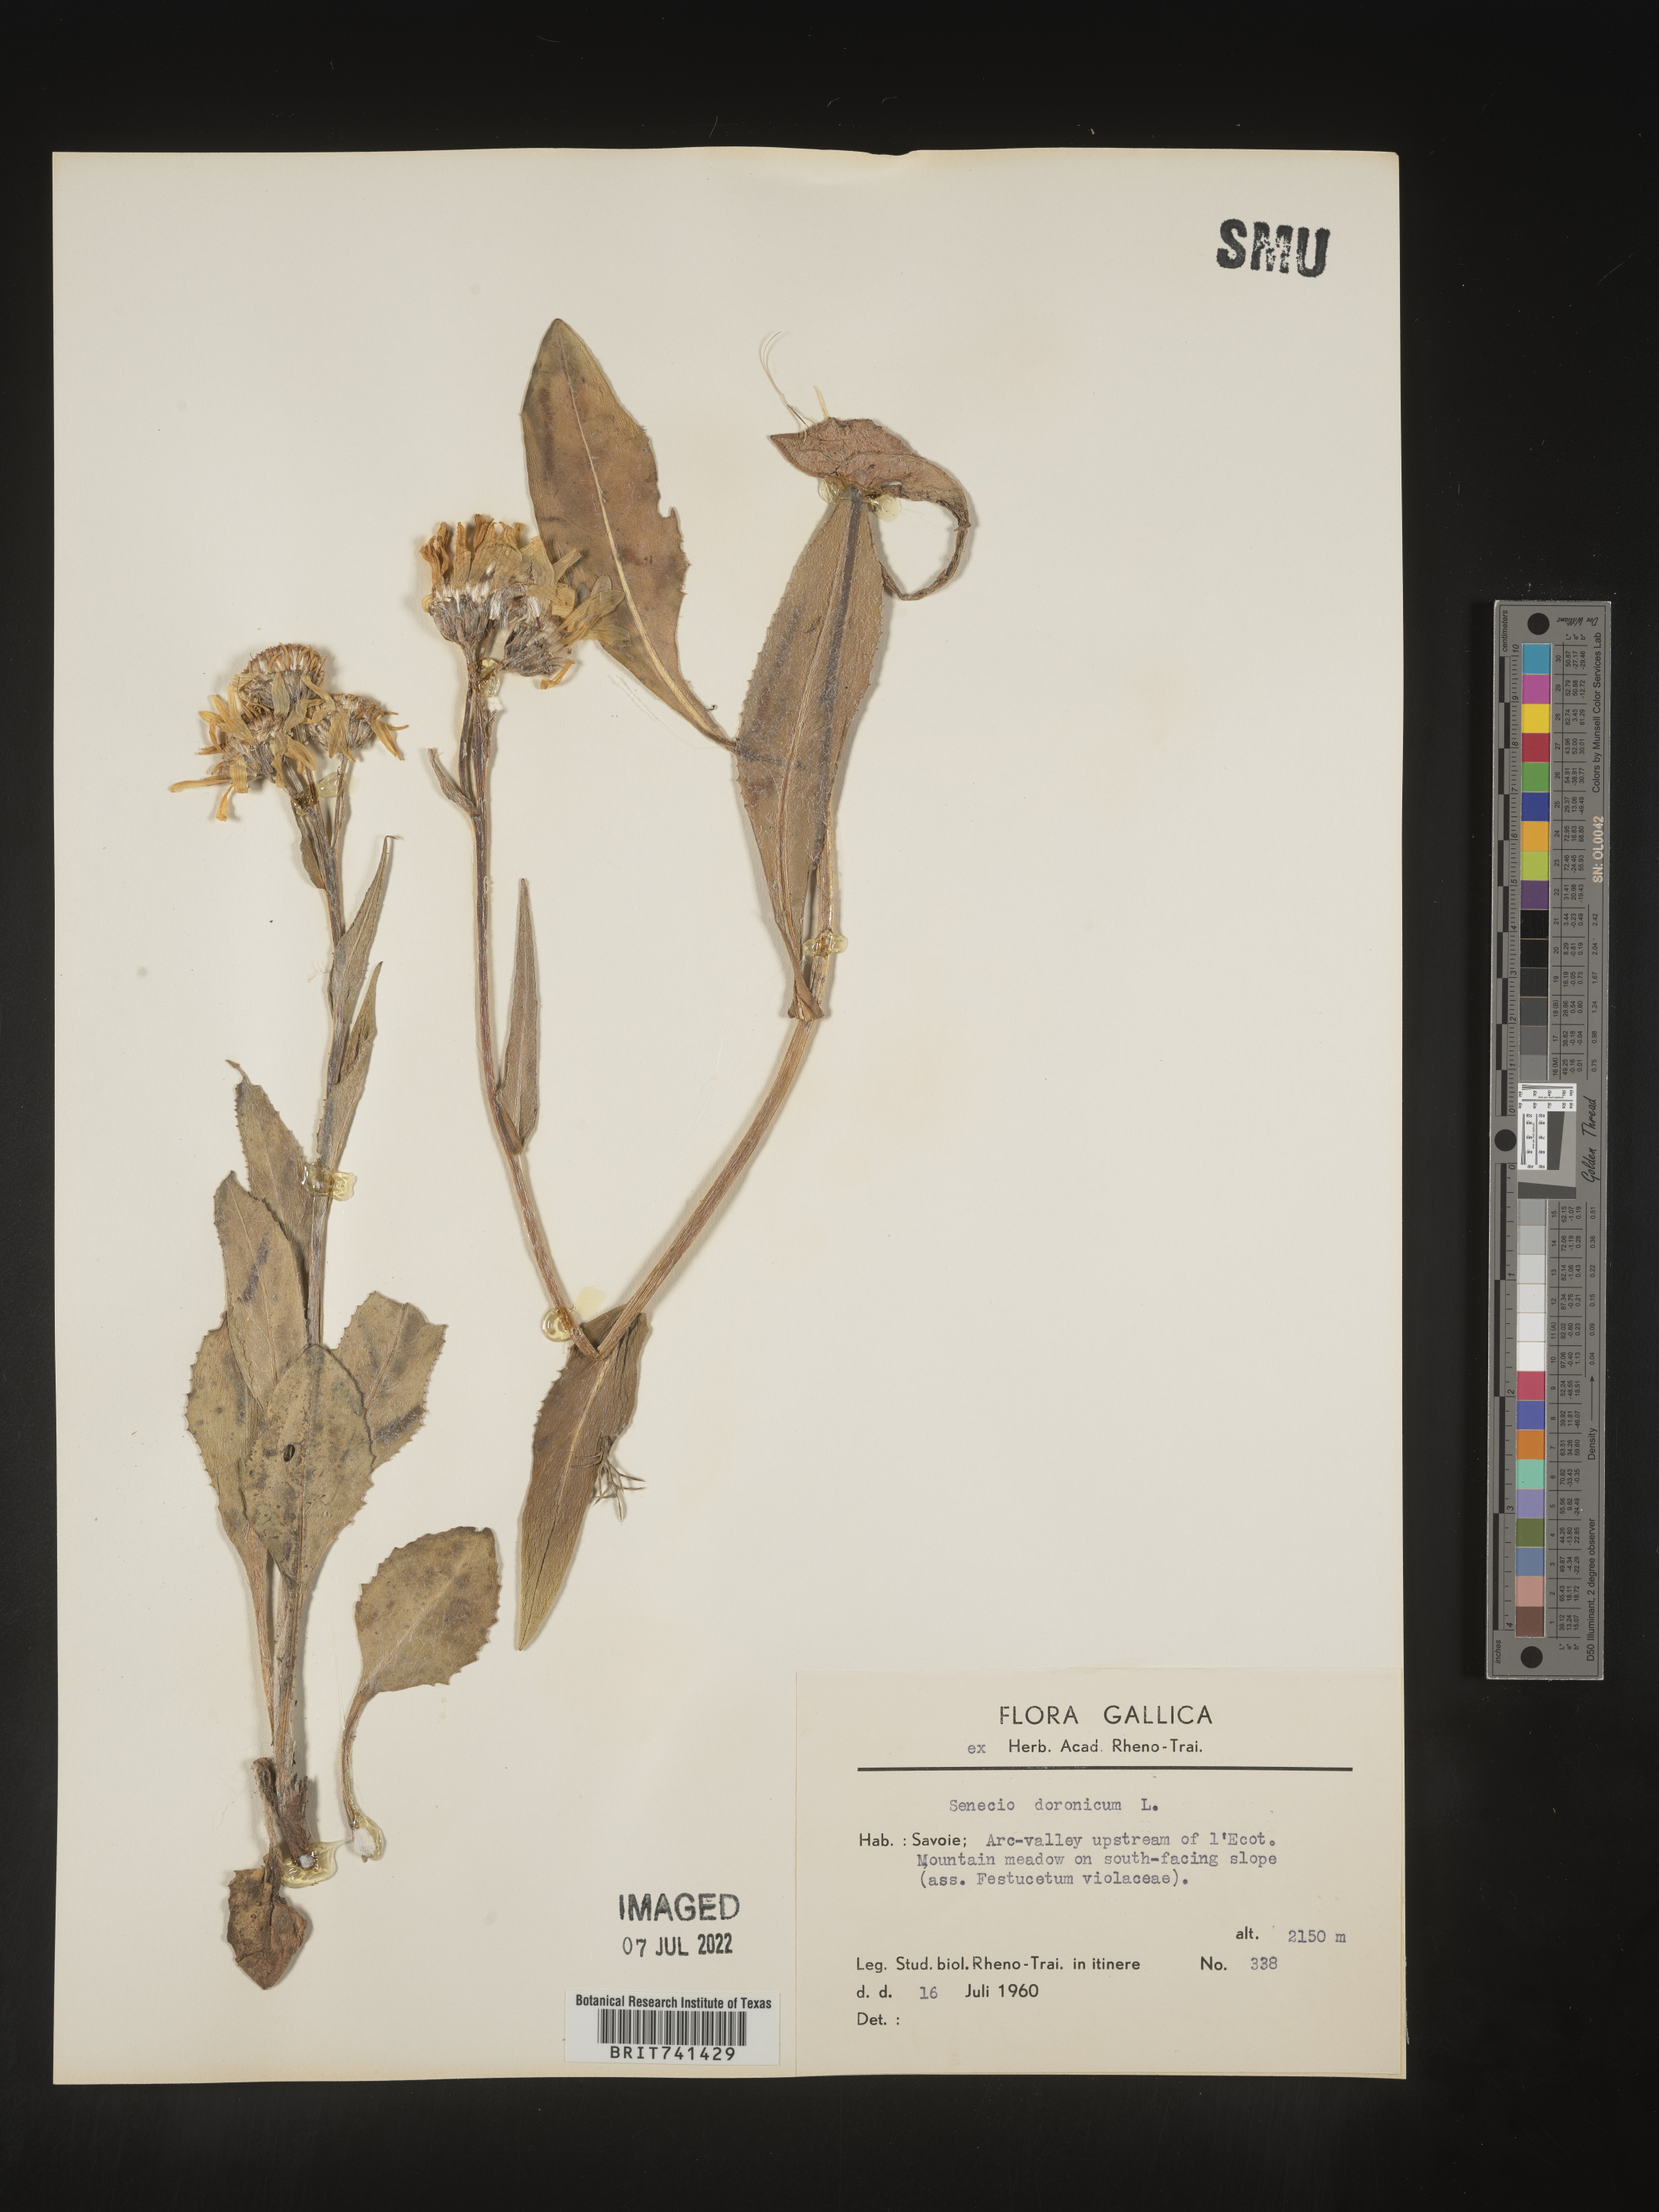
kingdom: Plantae
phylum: Tracheophyta
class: Magnoliopsida
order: Asterales
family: Asteraceae
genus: Senecio
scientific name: Senecio
